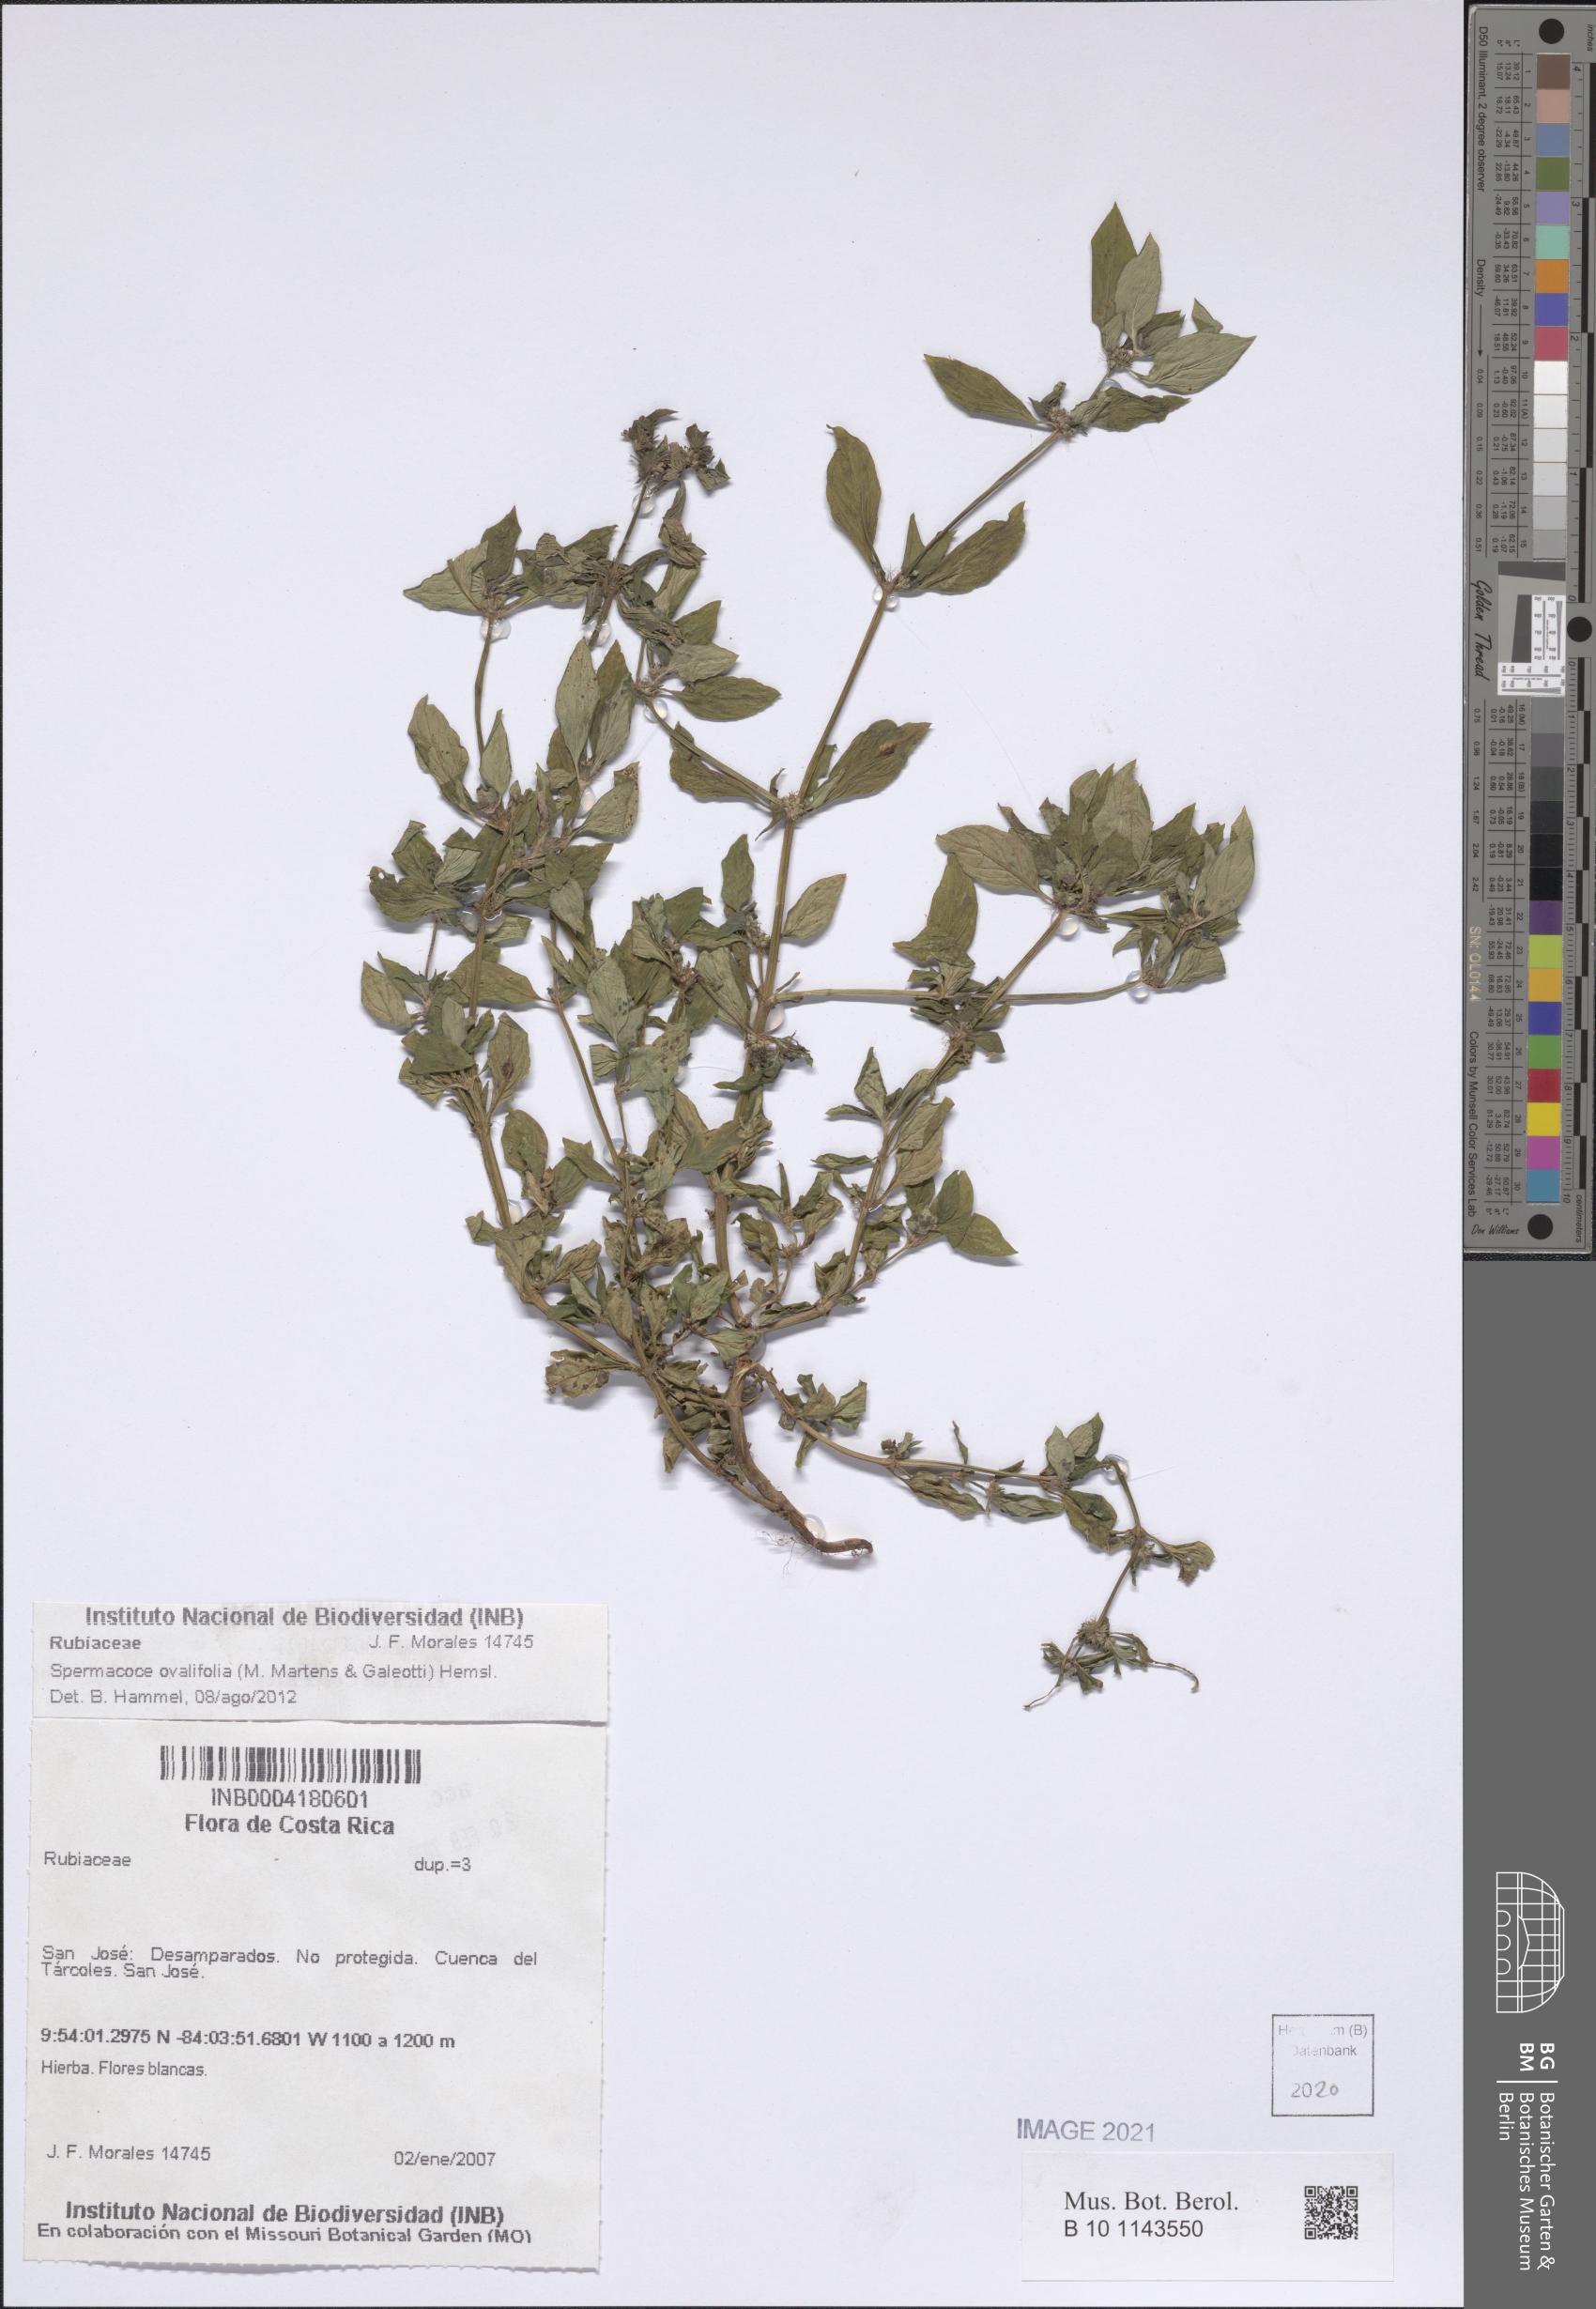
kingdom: Plantae
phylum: Tracheophyta
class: Magnoliopsida
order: Gentianales
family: Rubiaceae
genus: Spermacoce
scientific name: Spermacoce ovalifolia
